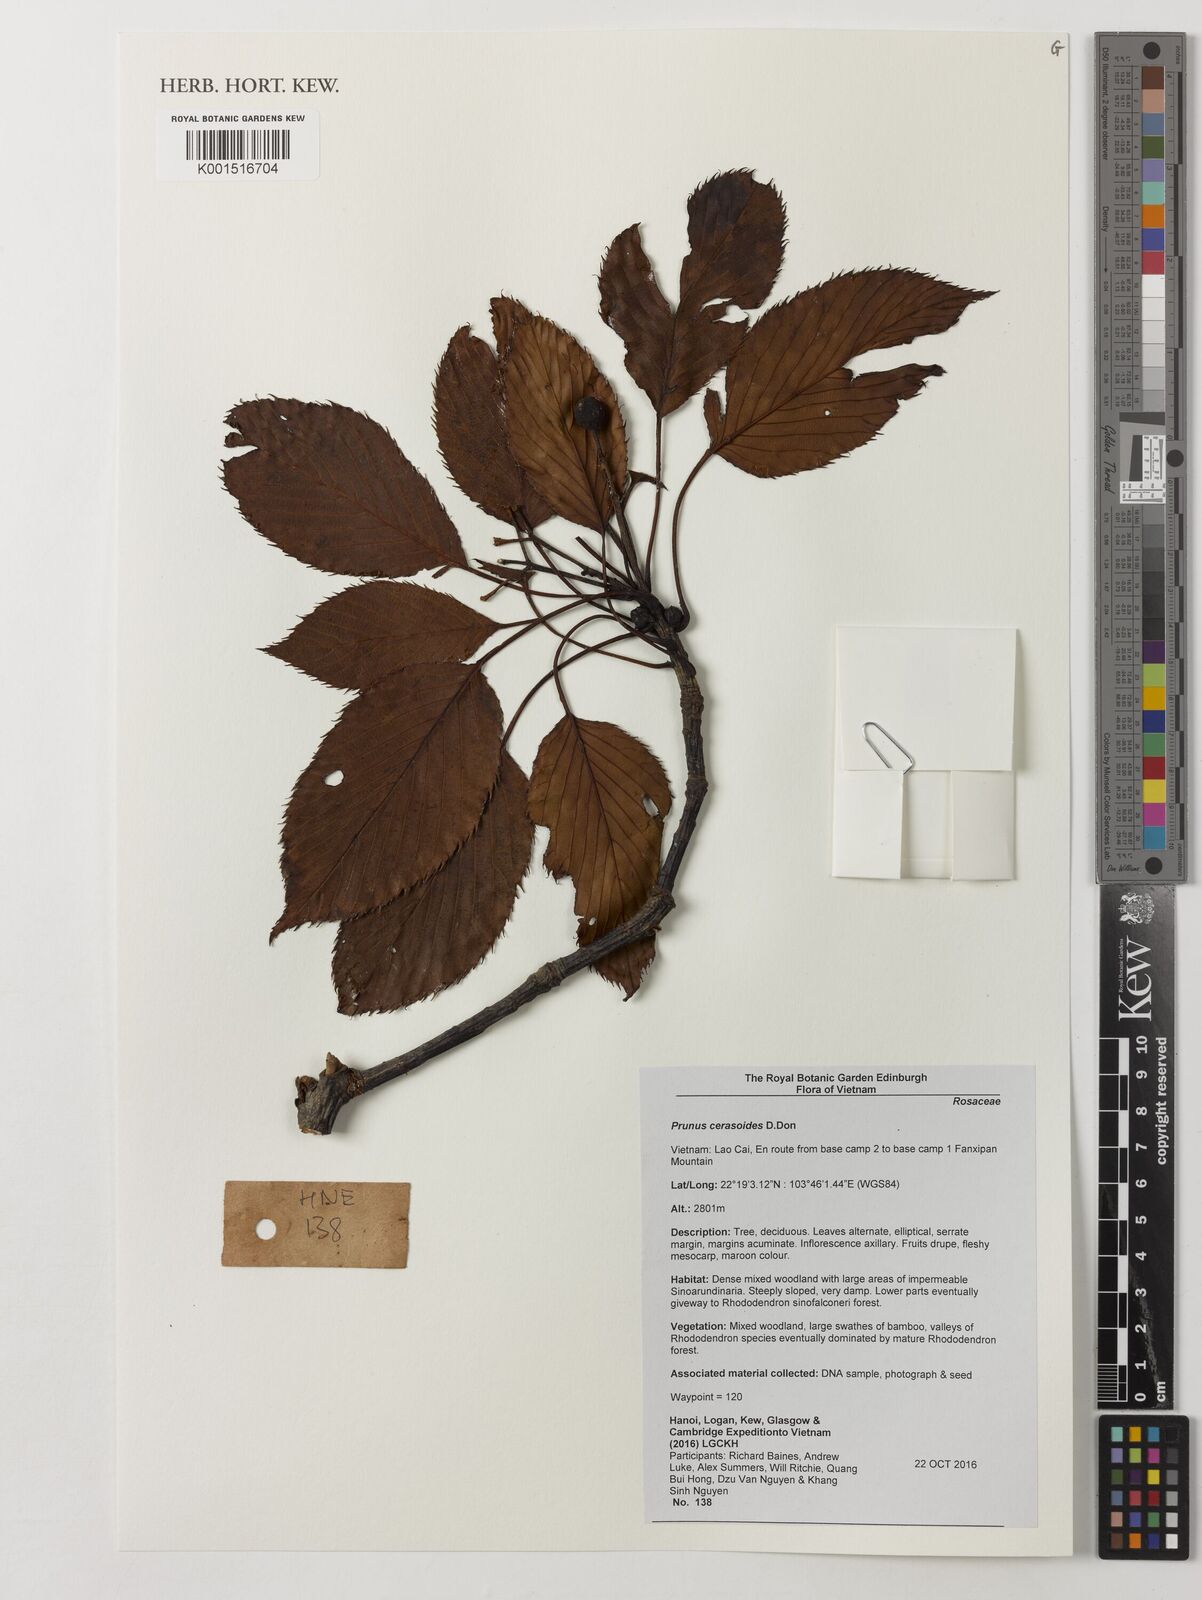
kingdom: Plantae
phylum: Tracheophyta
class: Magnoliopsida
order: Rosales
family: Rosaceae
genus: Prunus
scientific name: Prunus
